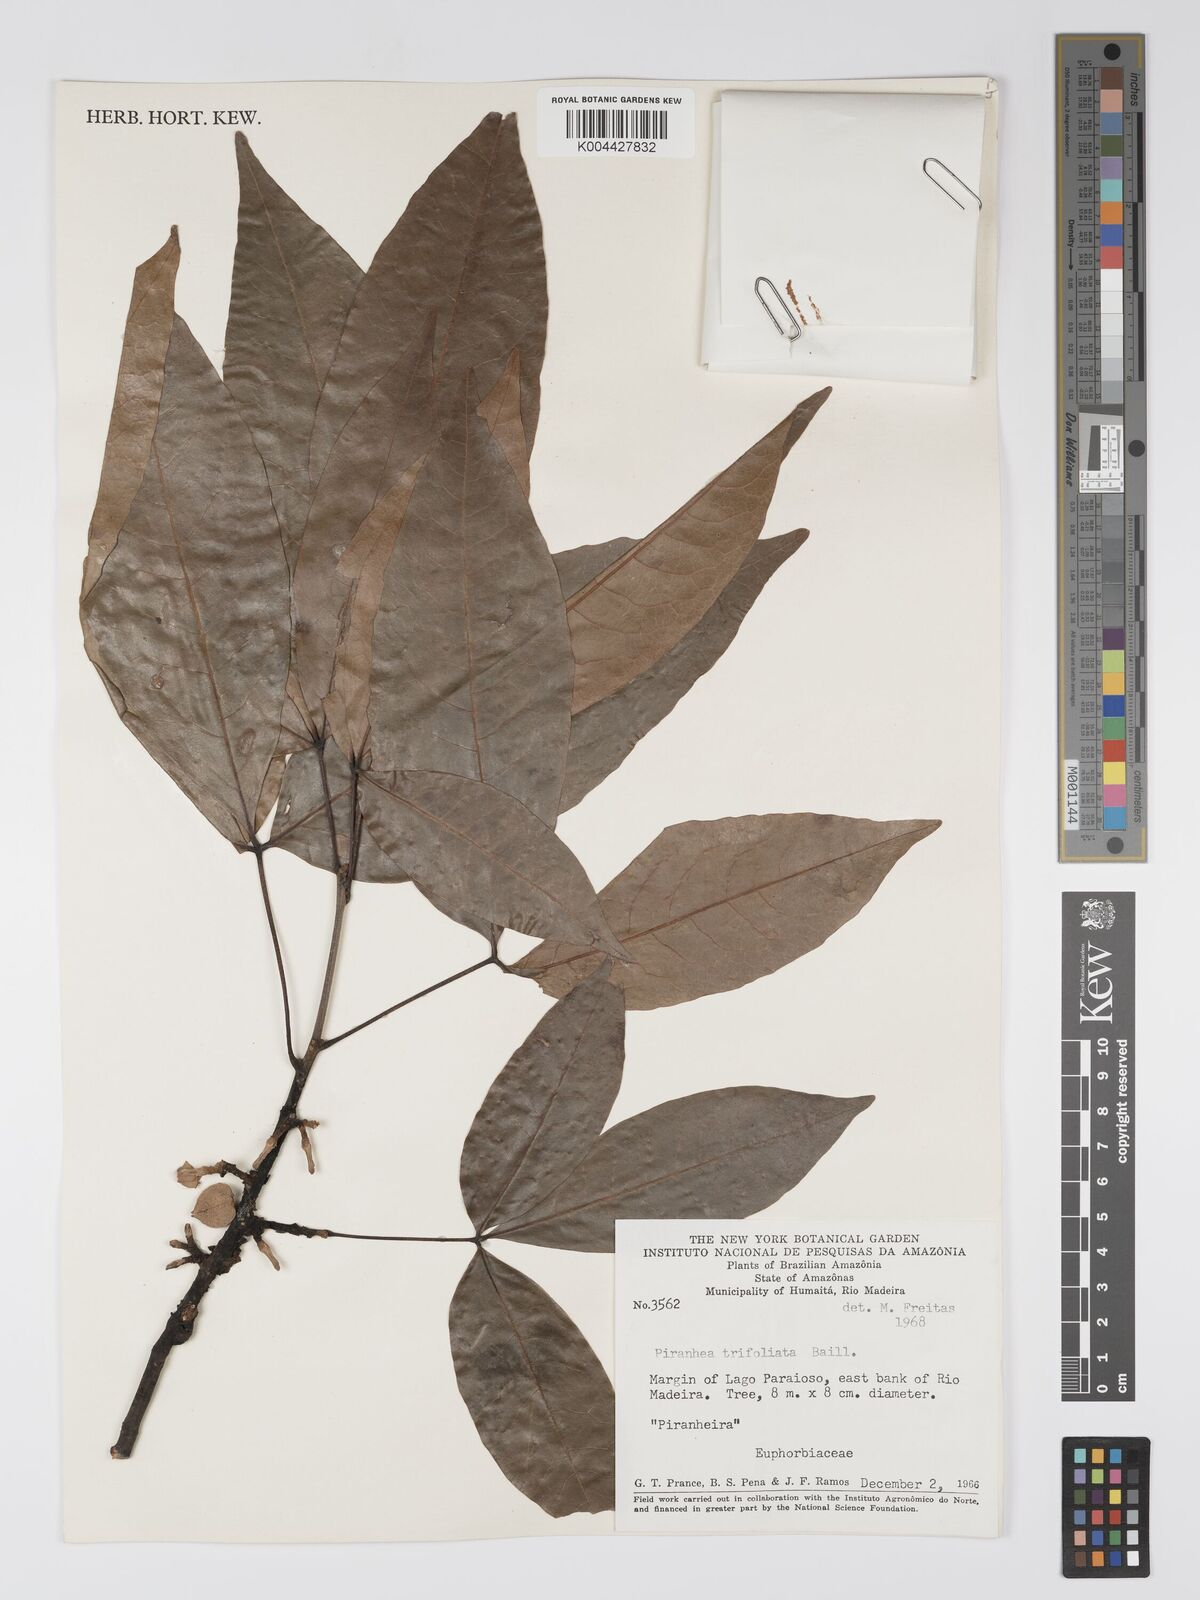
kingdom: Plantae
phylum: Tracheophyta
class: Magnoliopsida
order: Malpighiales
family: Picrodendraceae
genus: Piranhea
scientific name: Piranhea trifoliolata
